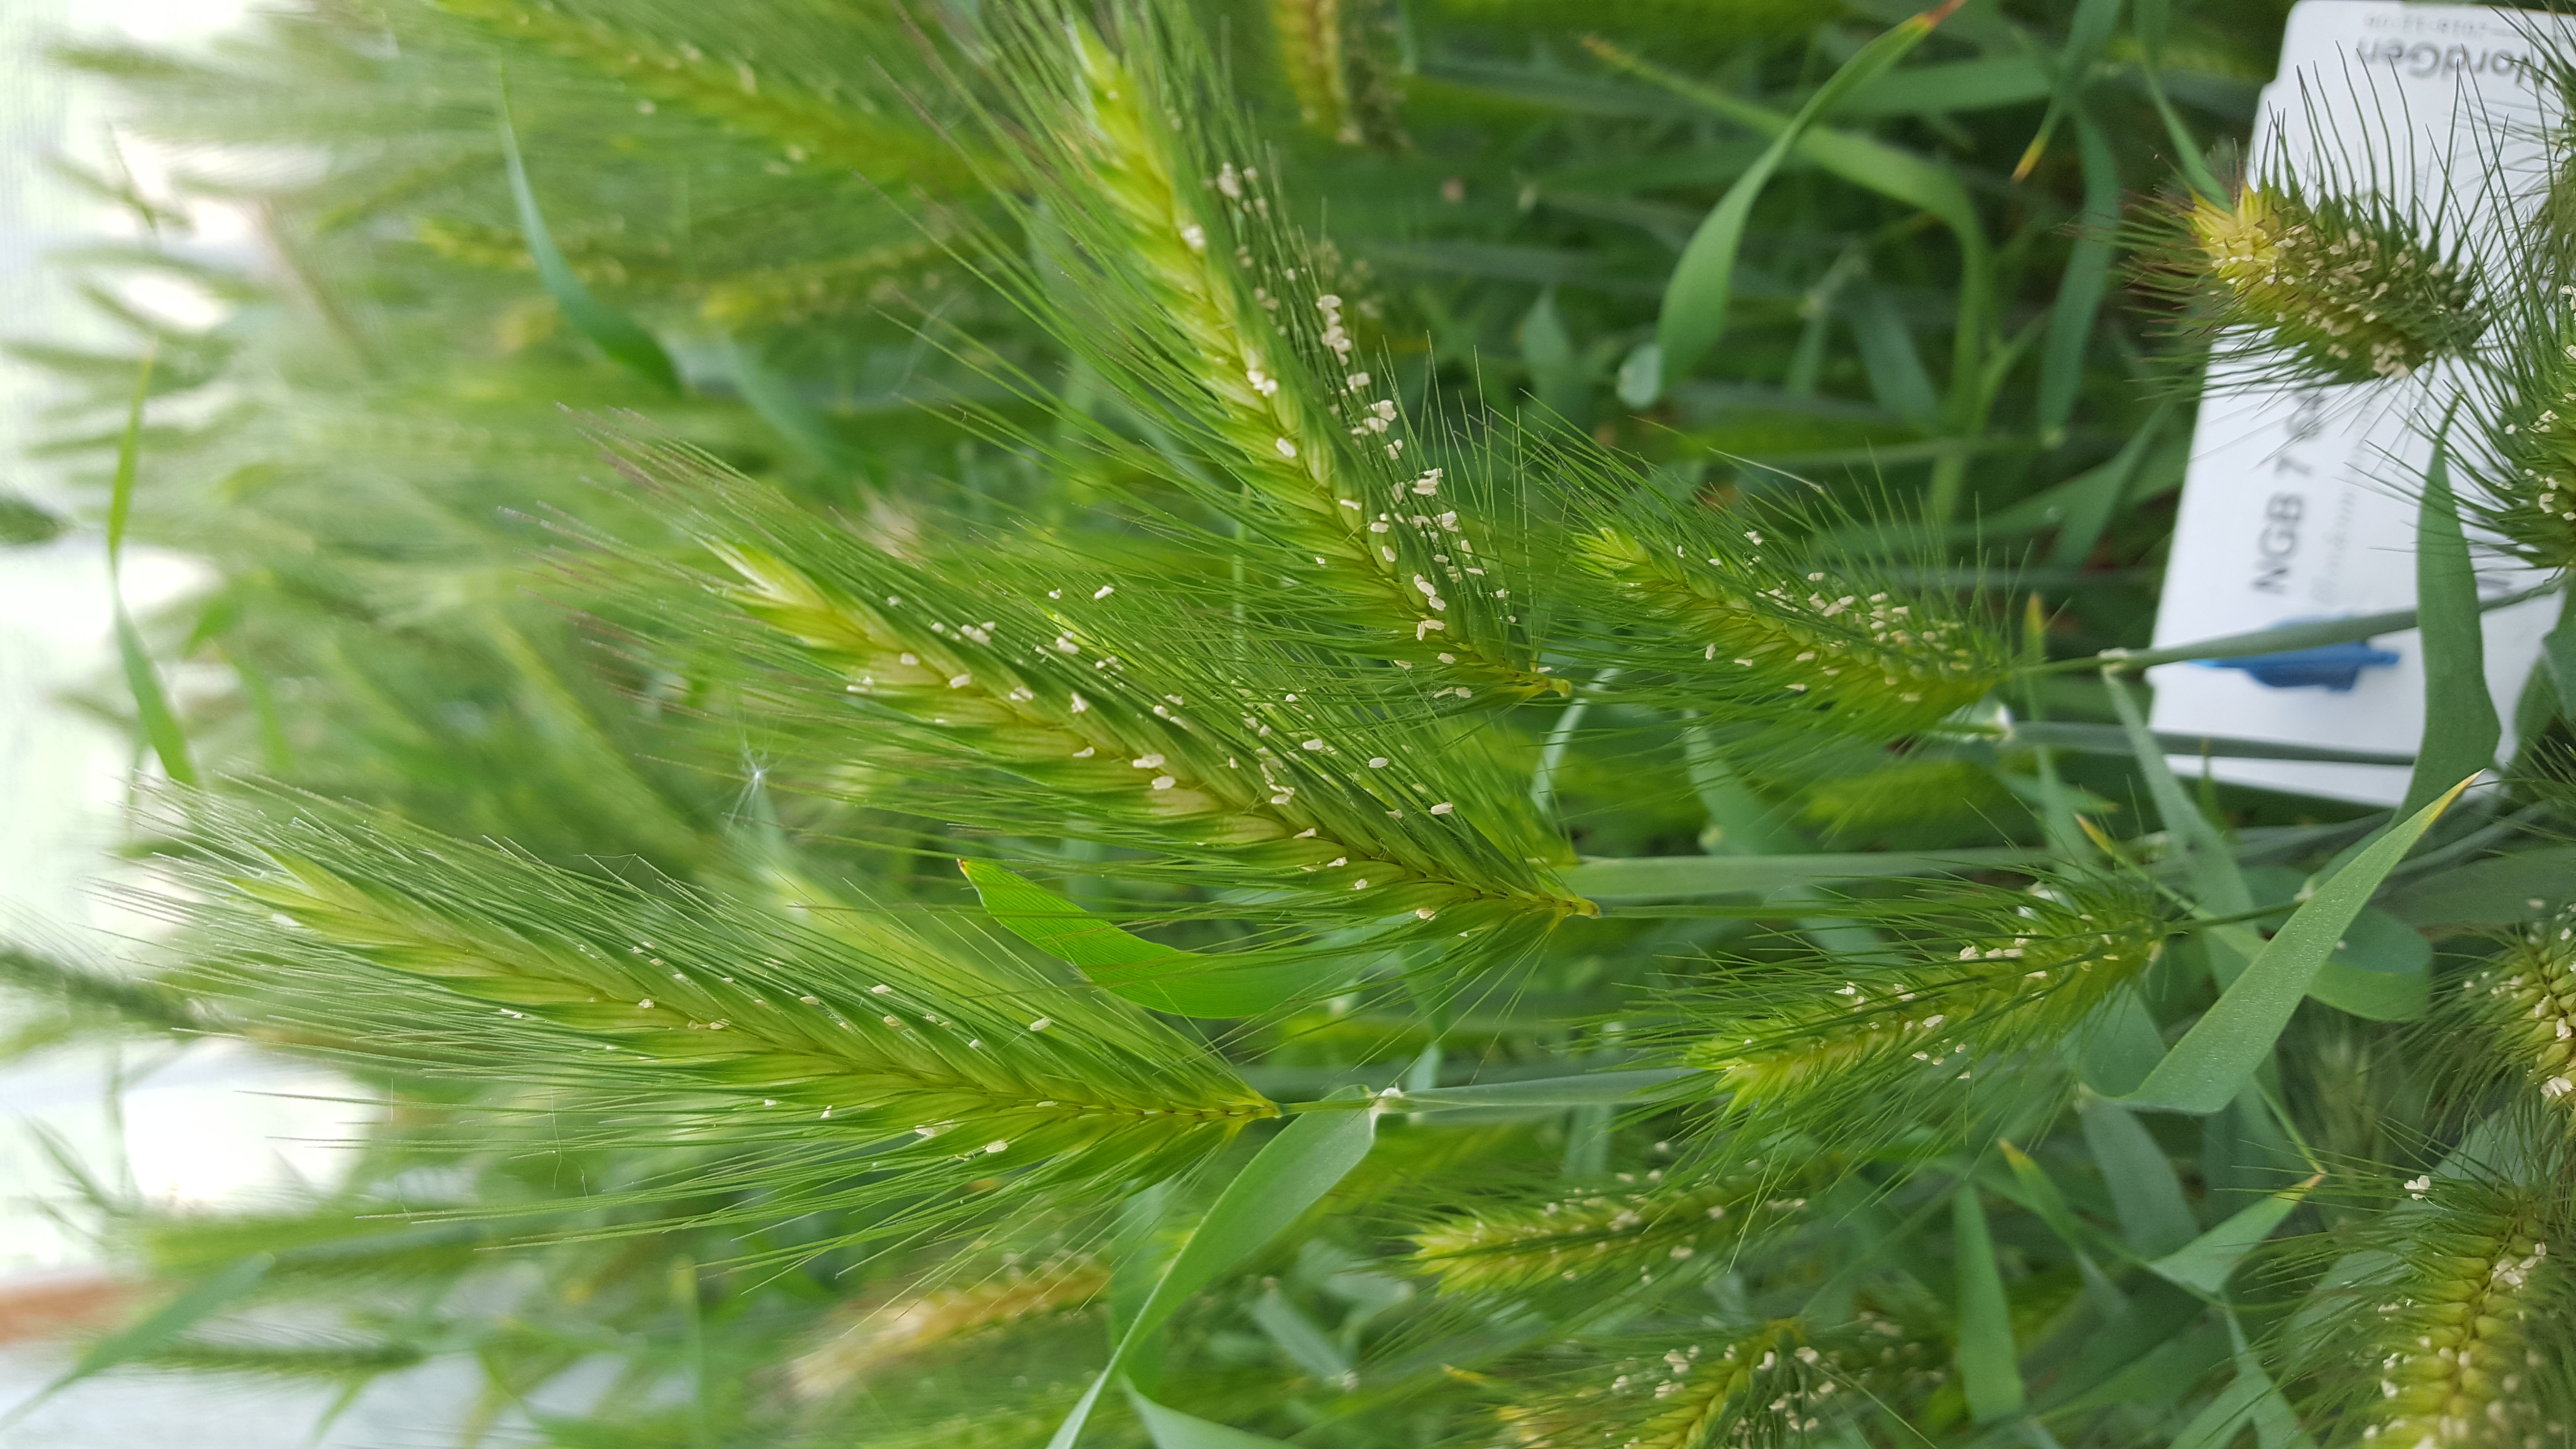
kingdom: Plantae
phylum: Tracheophyta
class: Liliopsida
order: Poales
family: Poaceae
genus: Hordeum
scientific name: Hordeum murinum
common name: Wall barley
